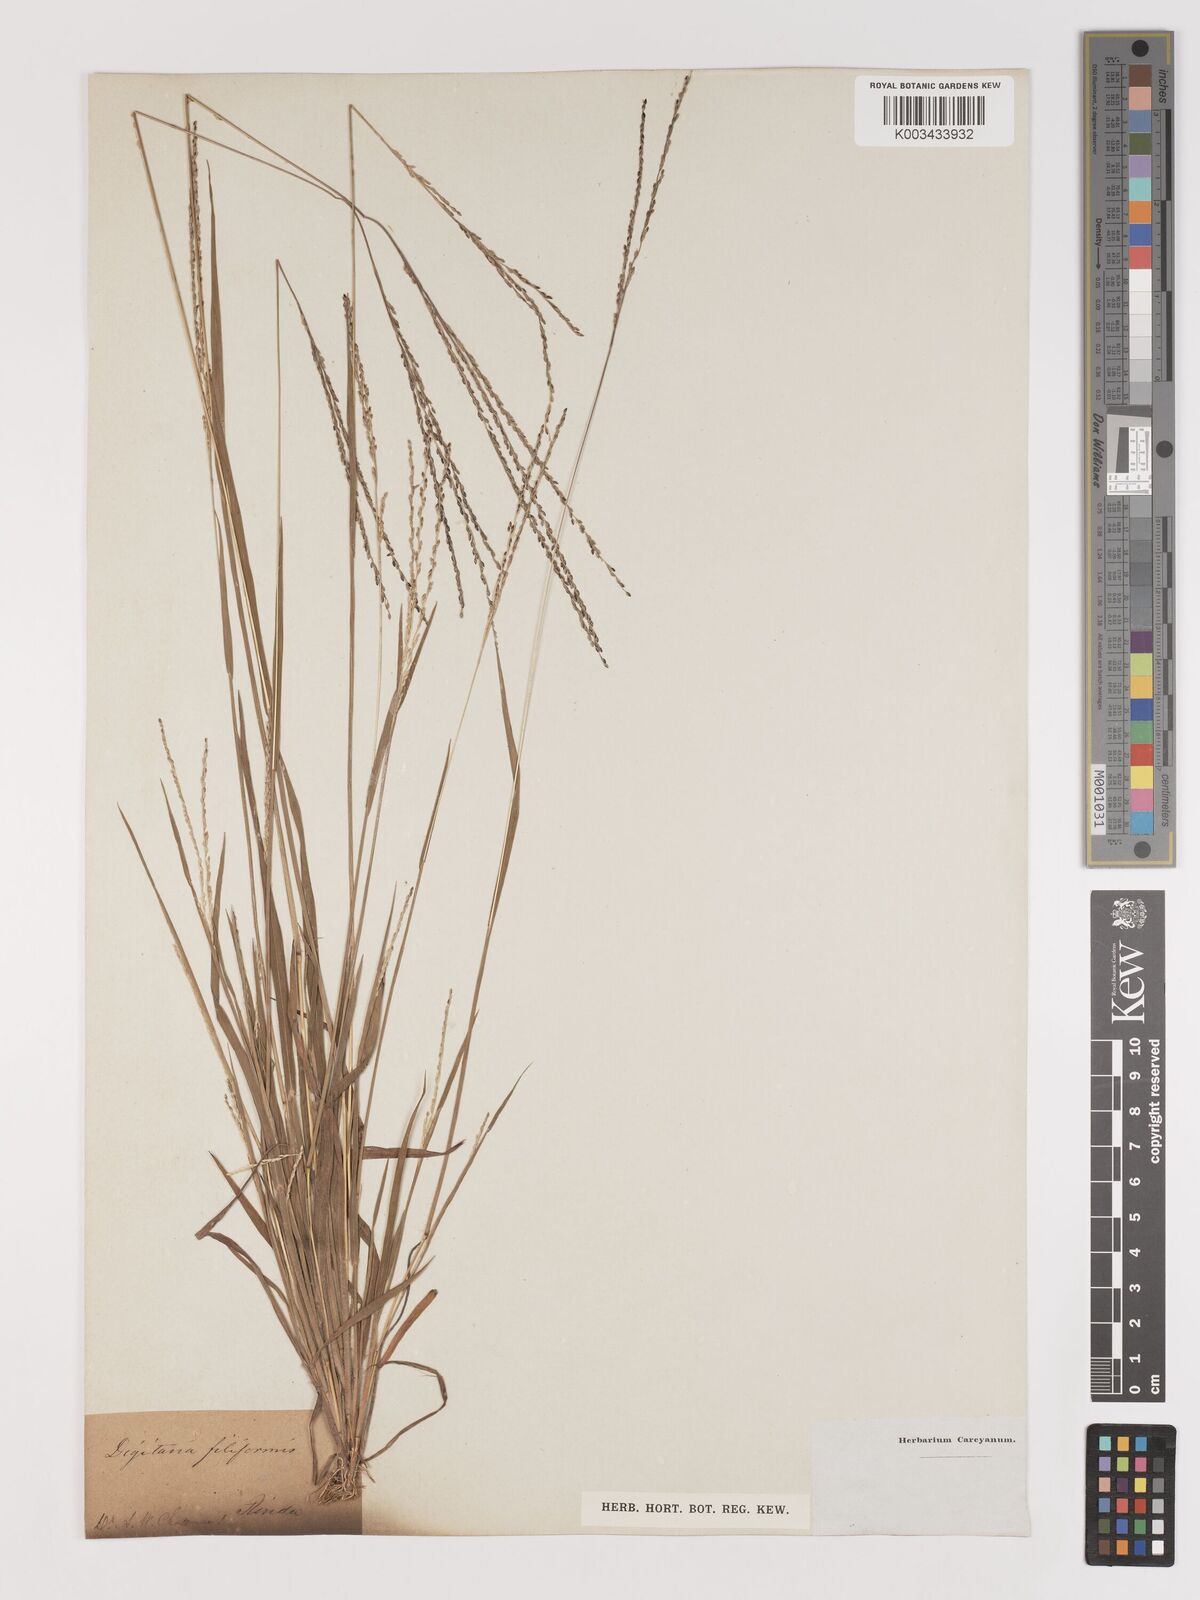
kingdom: Plantae
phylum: Tracheophyta
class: Liliopsida
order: Poales
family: Poaceae
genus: Digitaria
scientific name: Digitaria filiformis
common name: Slender crabgrass
